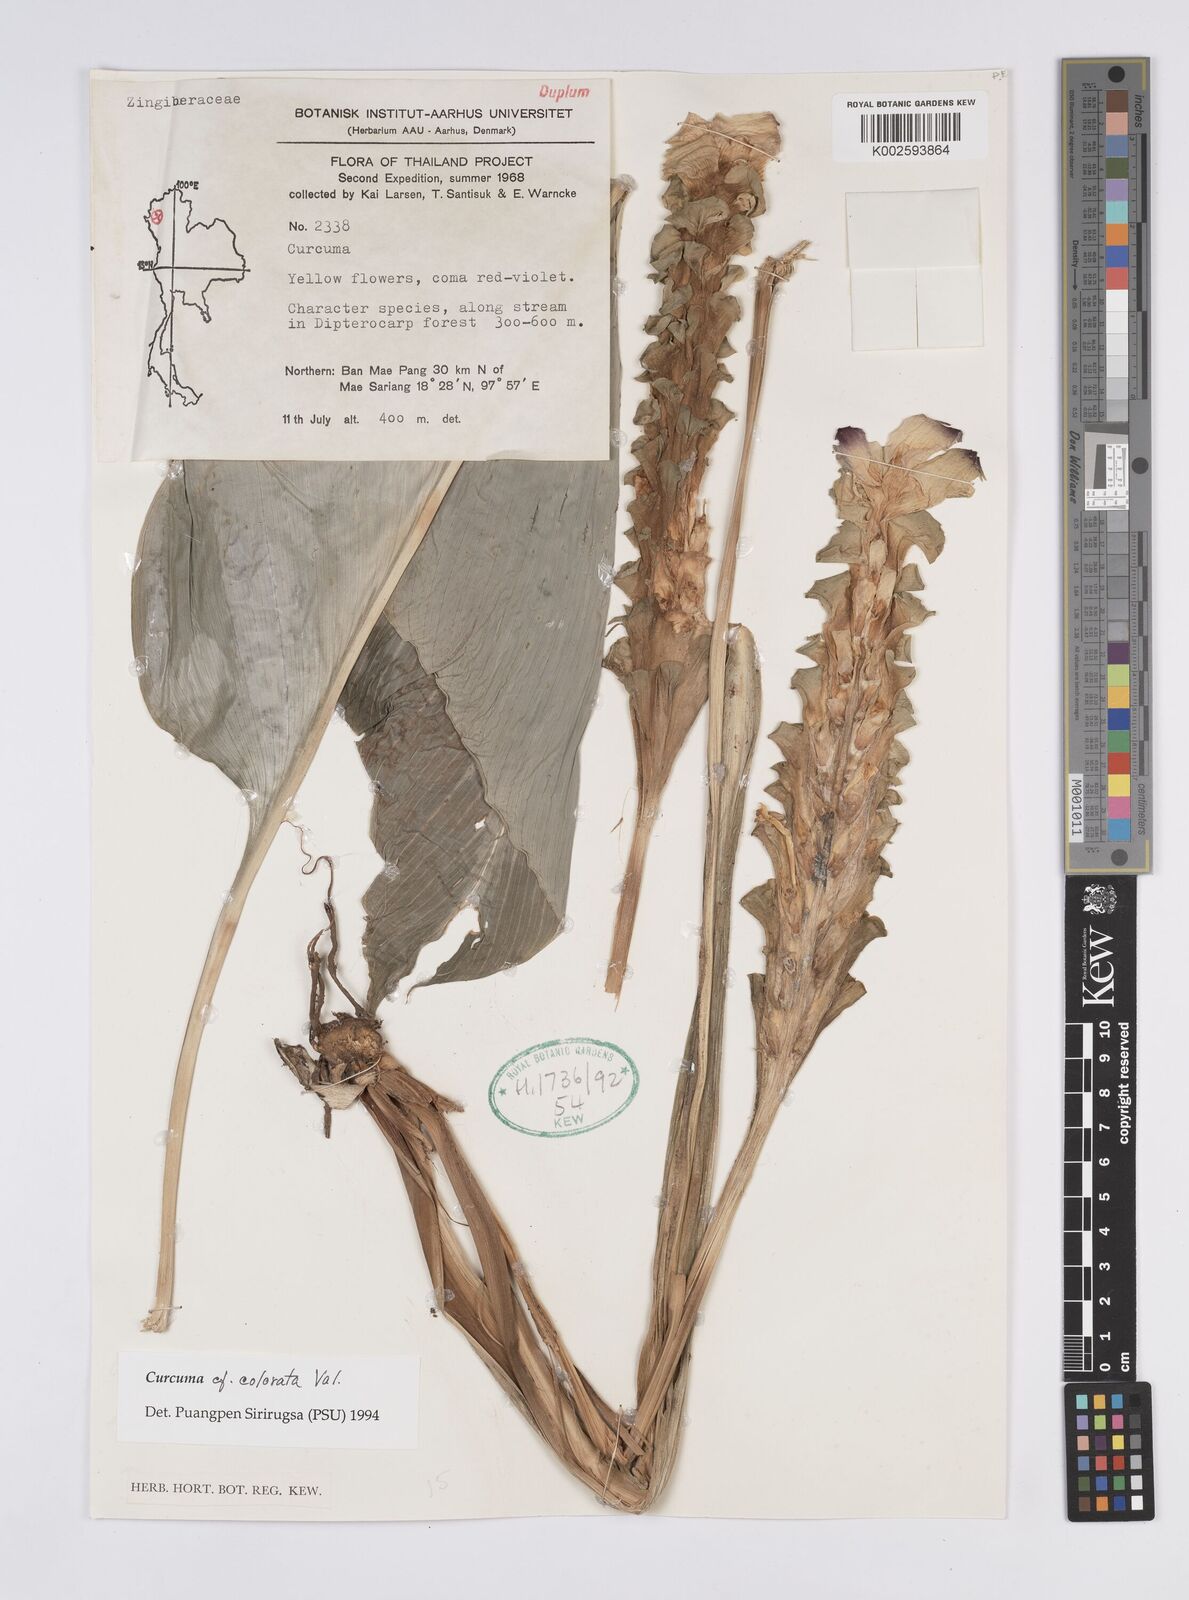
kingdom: Plantae
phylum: Tracheophyta
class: Liliopsida
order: Zingiberales
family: Zingiberaceae
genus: Curcuma
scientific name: Curcuma colorata
